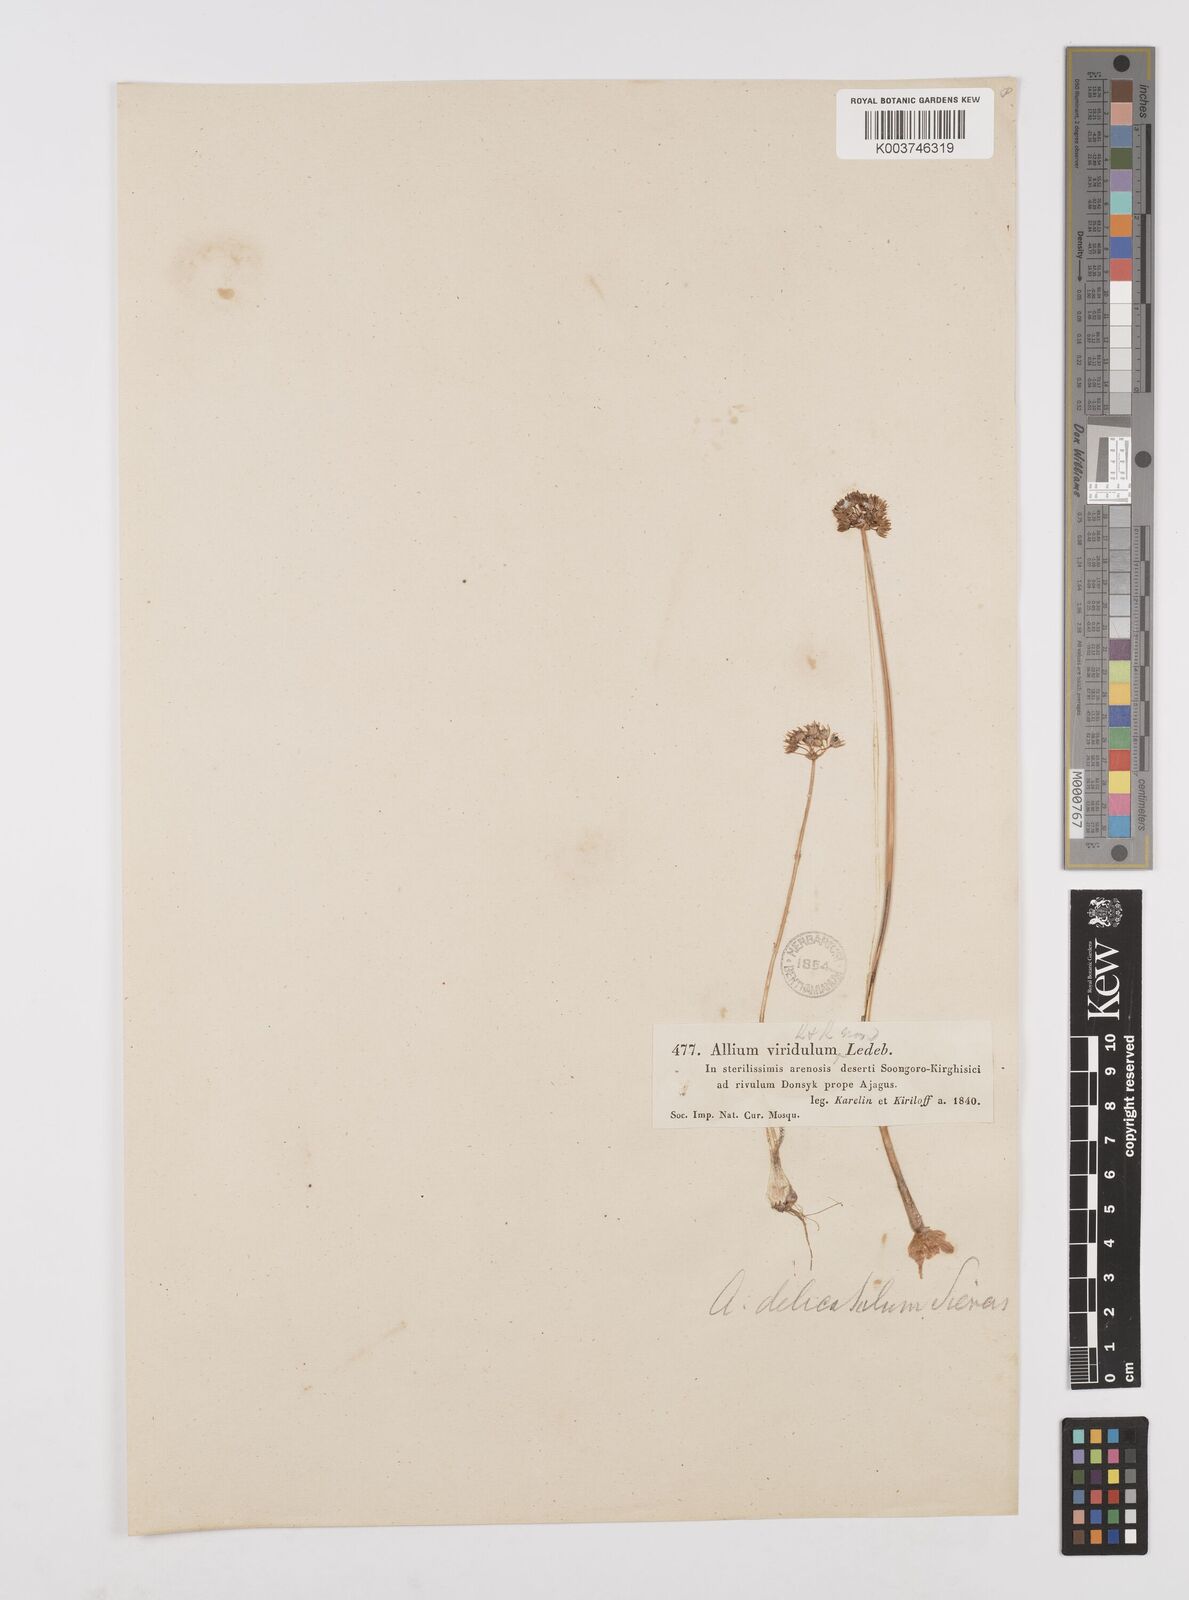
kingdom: Plantae
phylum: Tracheophyta
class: Liliopsida
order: Asparagales
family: Amaryllidaceae
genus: Allium
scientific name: Allium delicatulum
